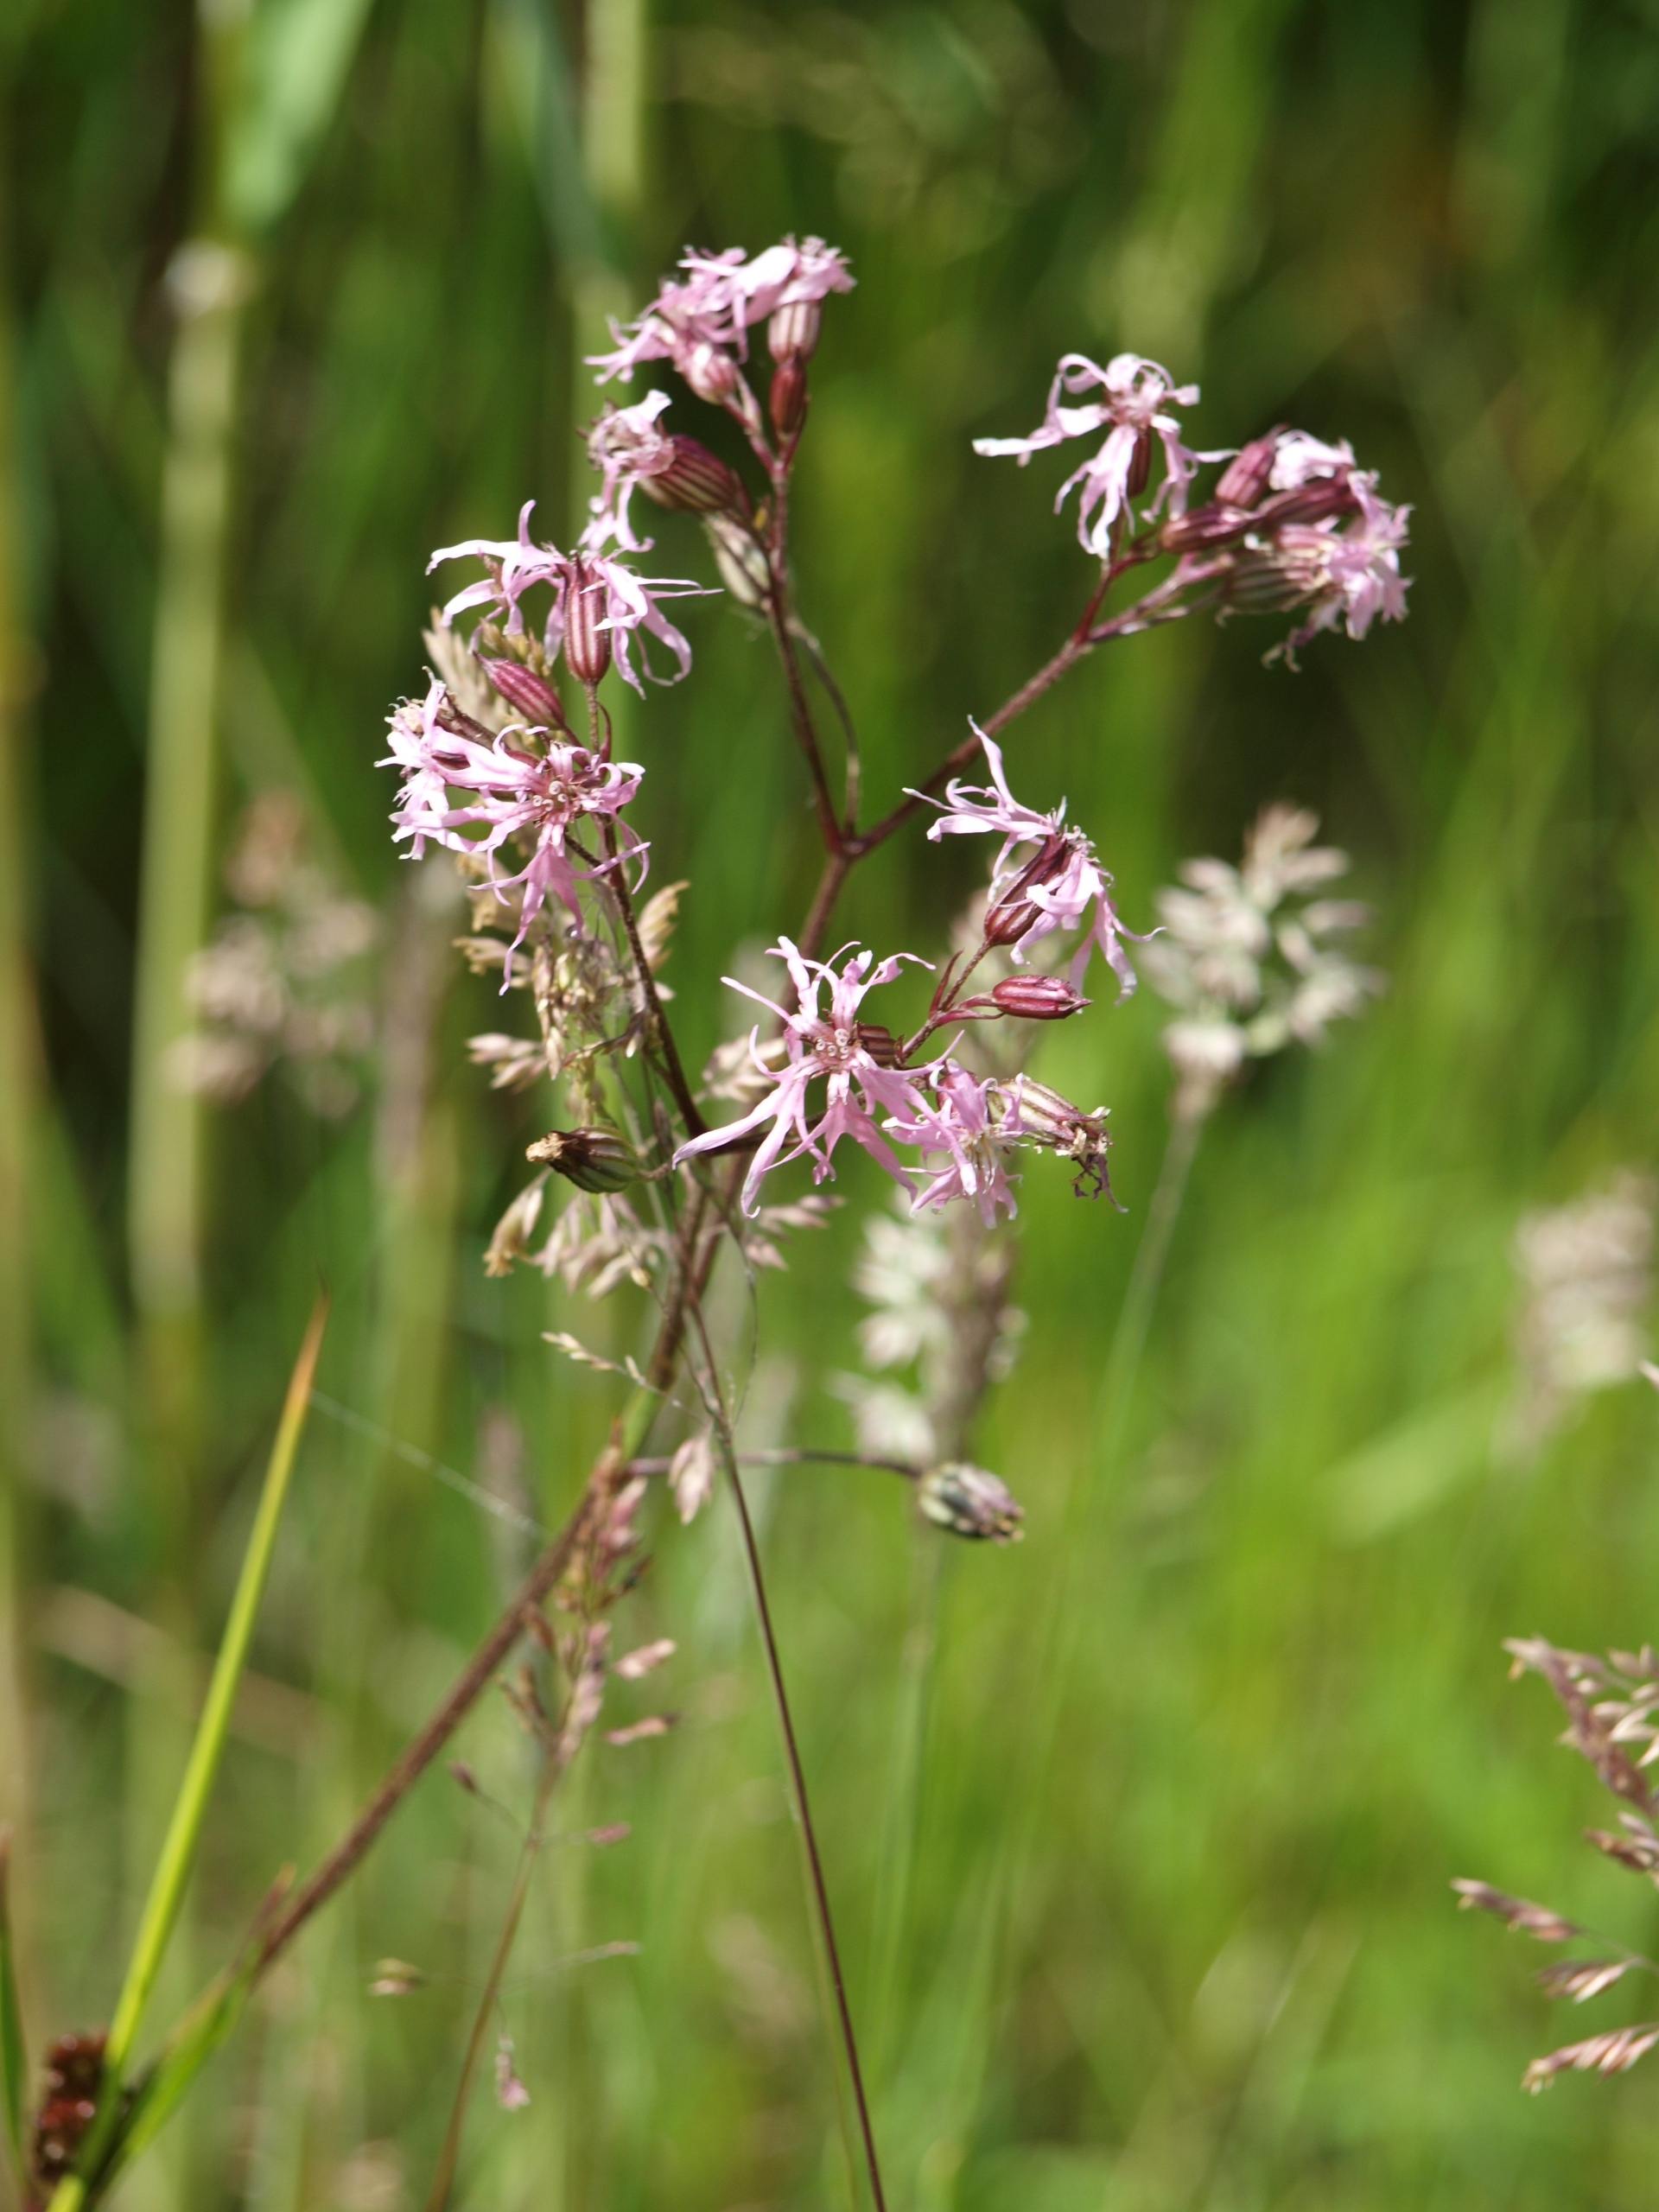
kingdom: Plantae
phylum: Tracheophyta
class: Magnoliopsida
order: Caryophyllales
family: Caryophyllaceae
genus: Silene
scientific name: Silene flos-cuculi
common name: Trævlekrone
